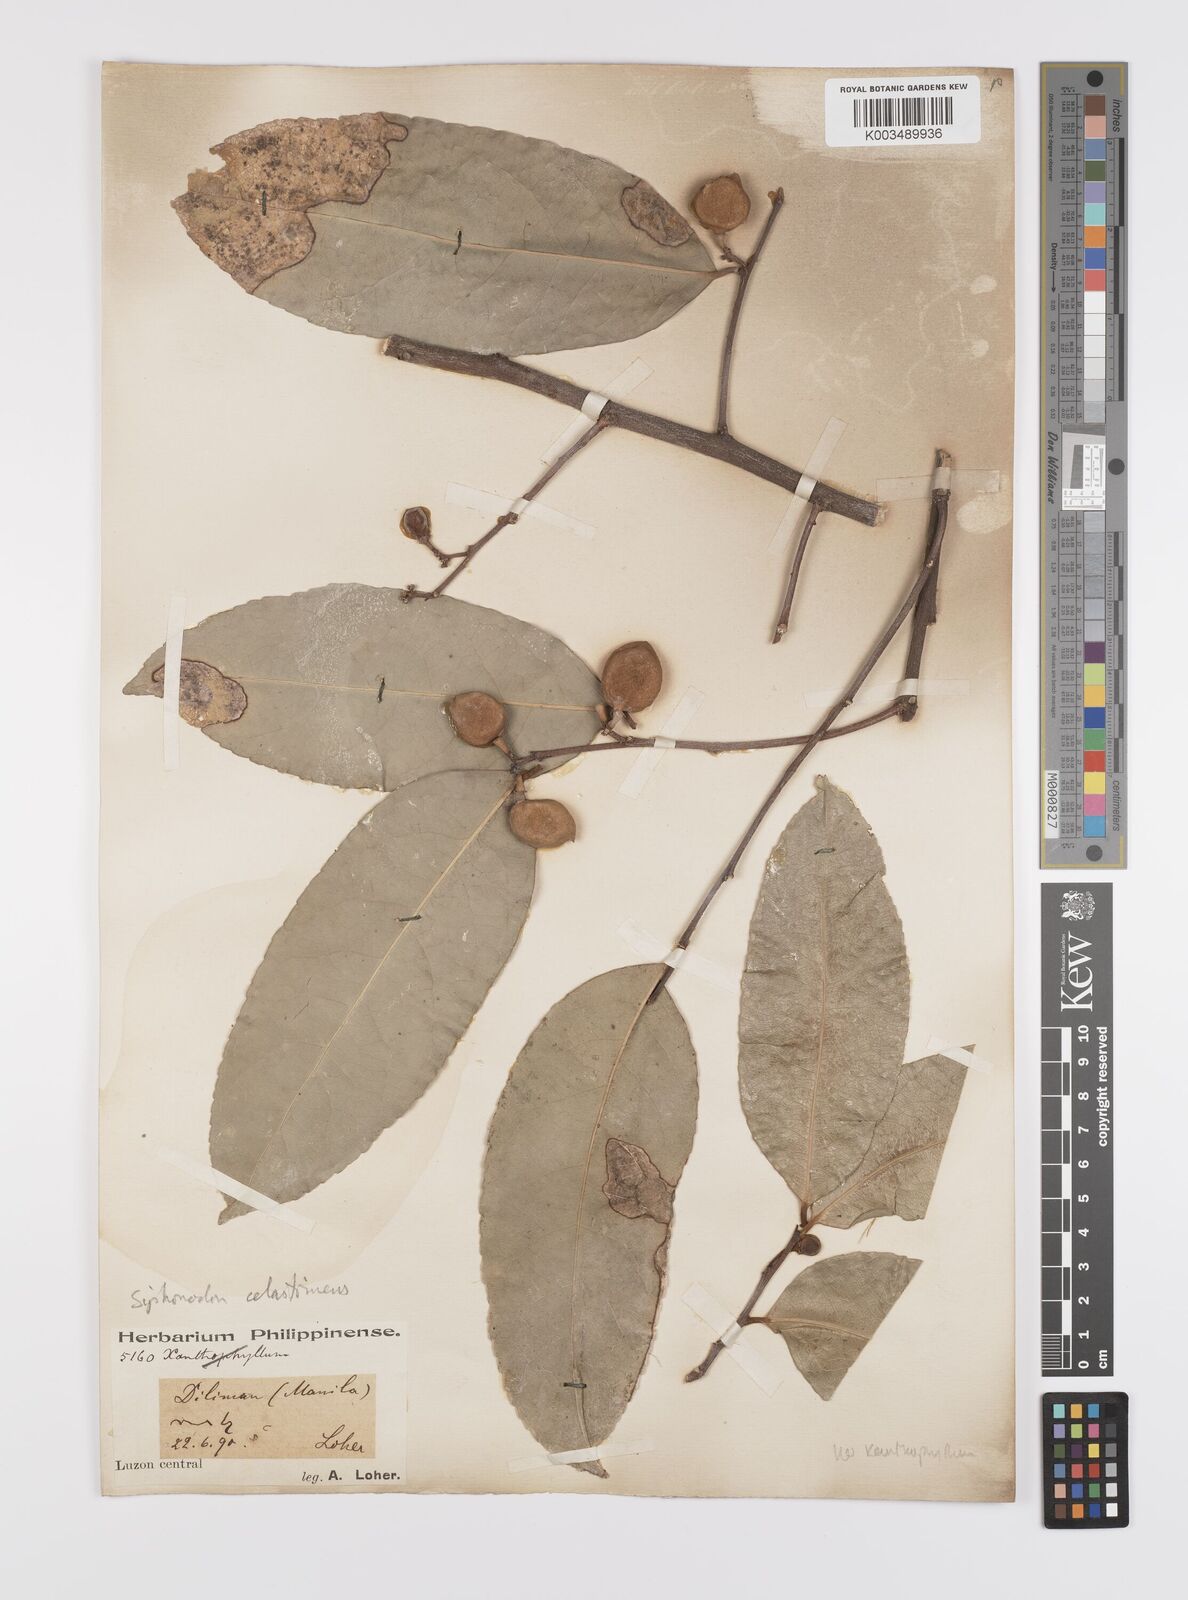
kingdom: Plantae
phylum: Tracheophyta
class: Magnoliopsida
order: Celastrales
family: Celastraceae
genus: Siphonodon
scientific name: Siphonodon celastrineus
